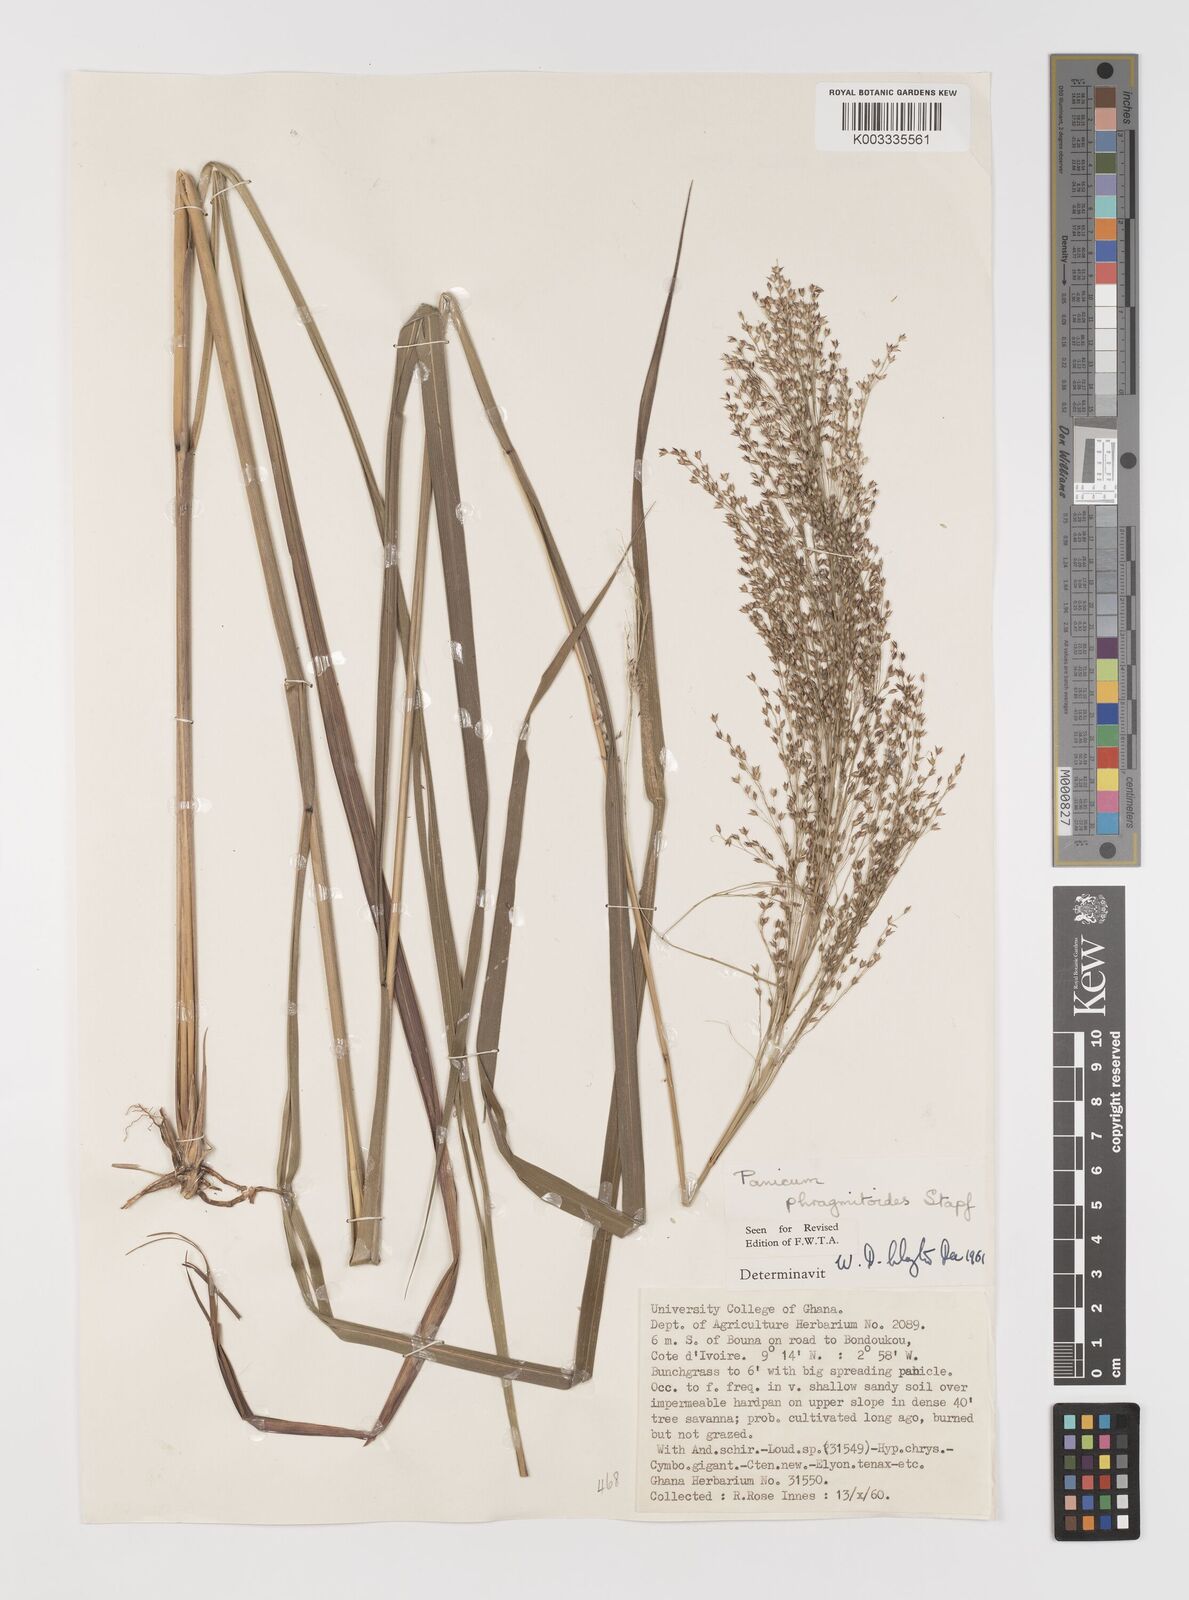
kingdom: Plantae
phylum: Tracheophyta
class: Liliopsida
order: Poales
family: Poaceae
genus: Panicum
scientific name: Panicum phragmitoides
